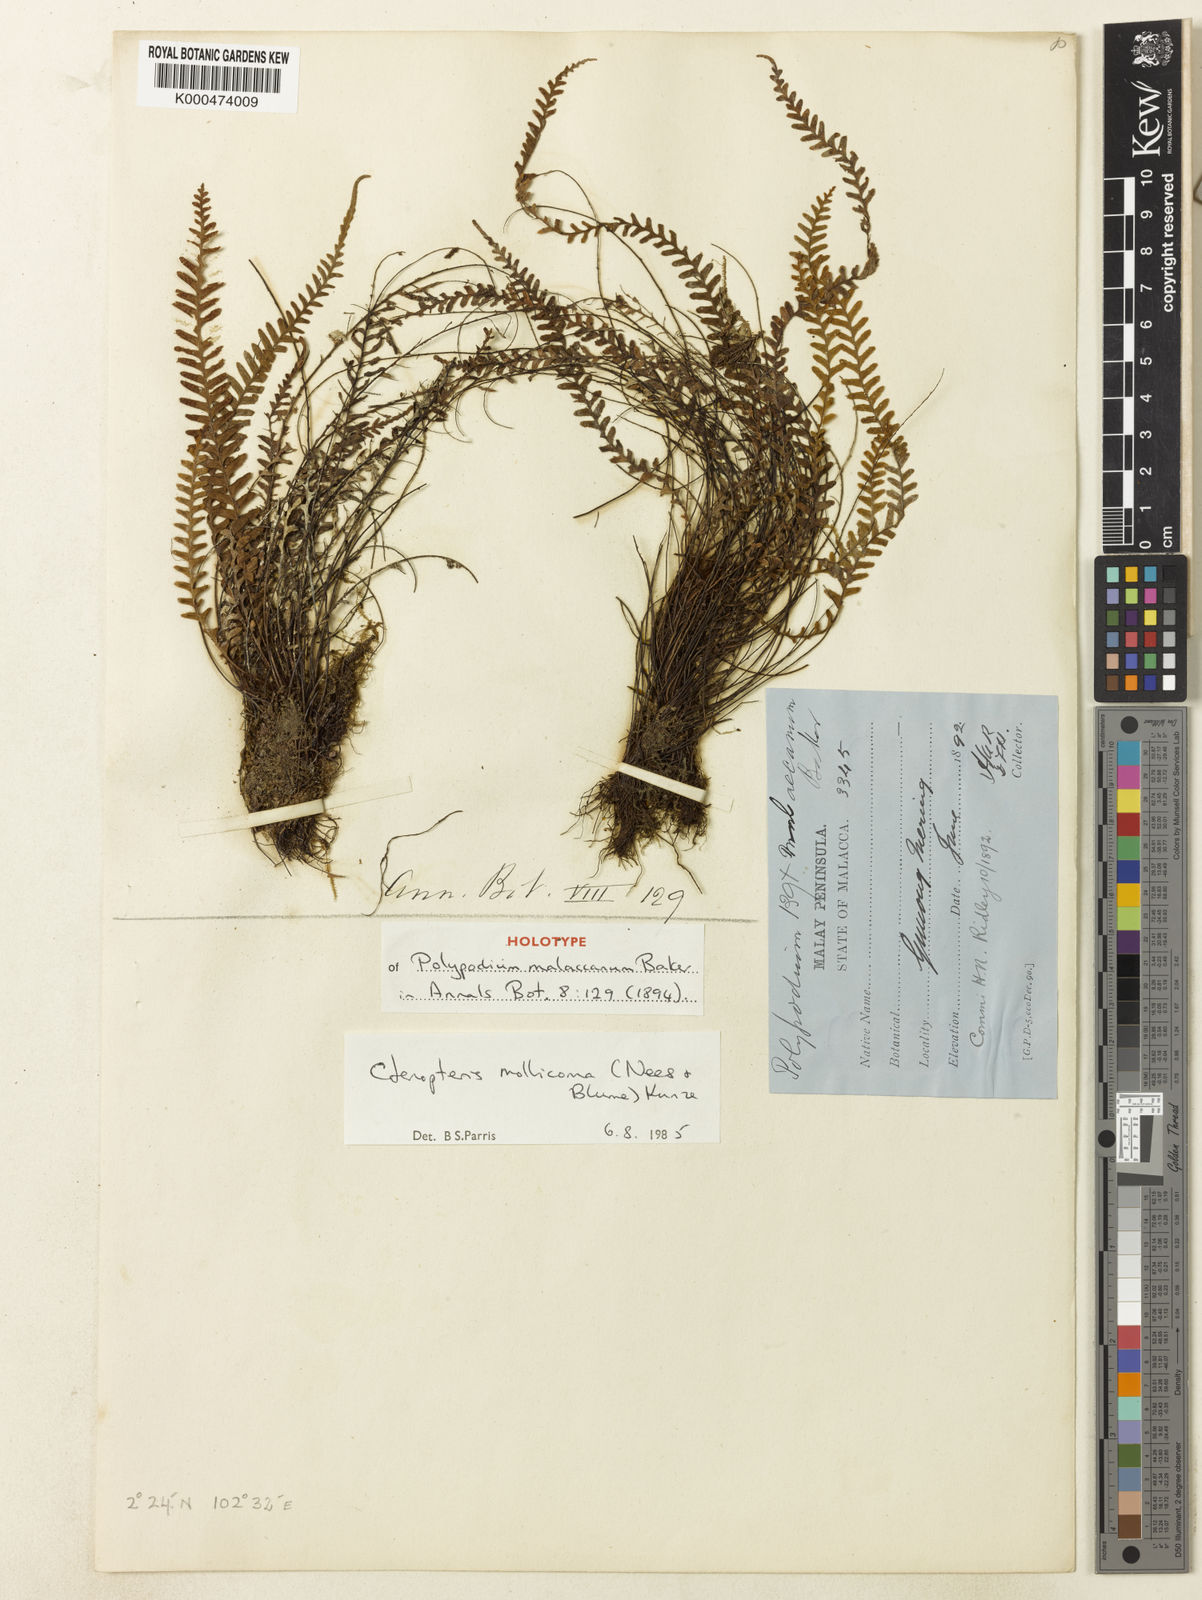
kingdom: Plantae
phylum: Tracheophyta
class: Polypodiopsida
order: Polypodiales
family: Polypodiaceae
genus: Dasygrammitis
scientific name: Dasygrammitis mollicoma
